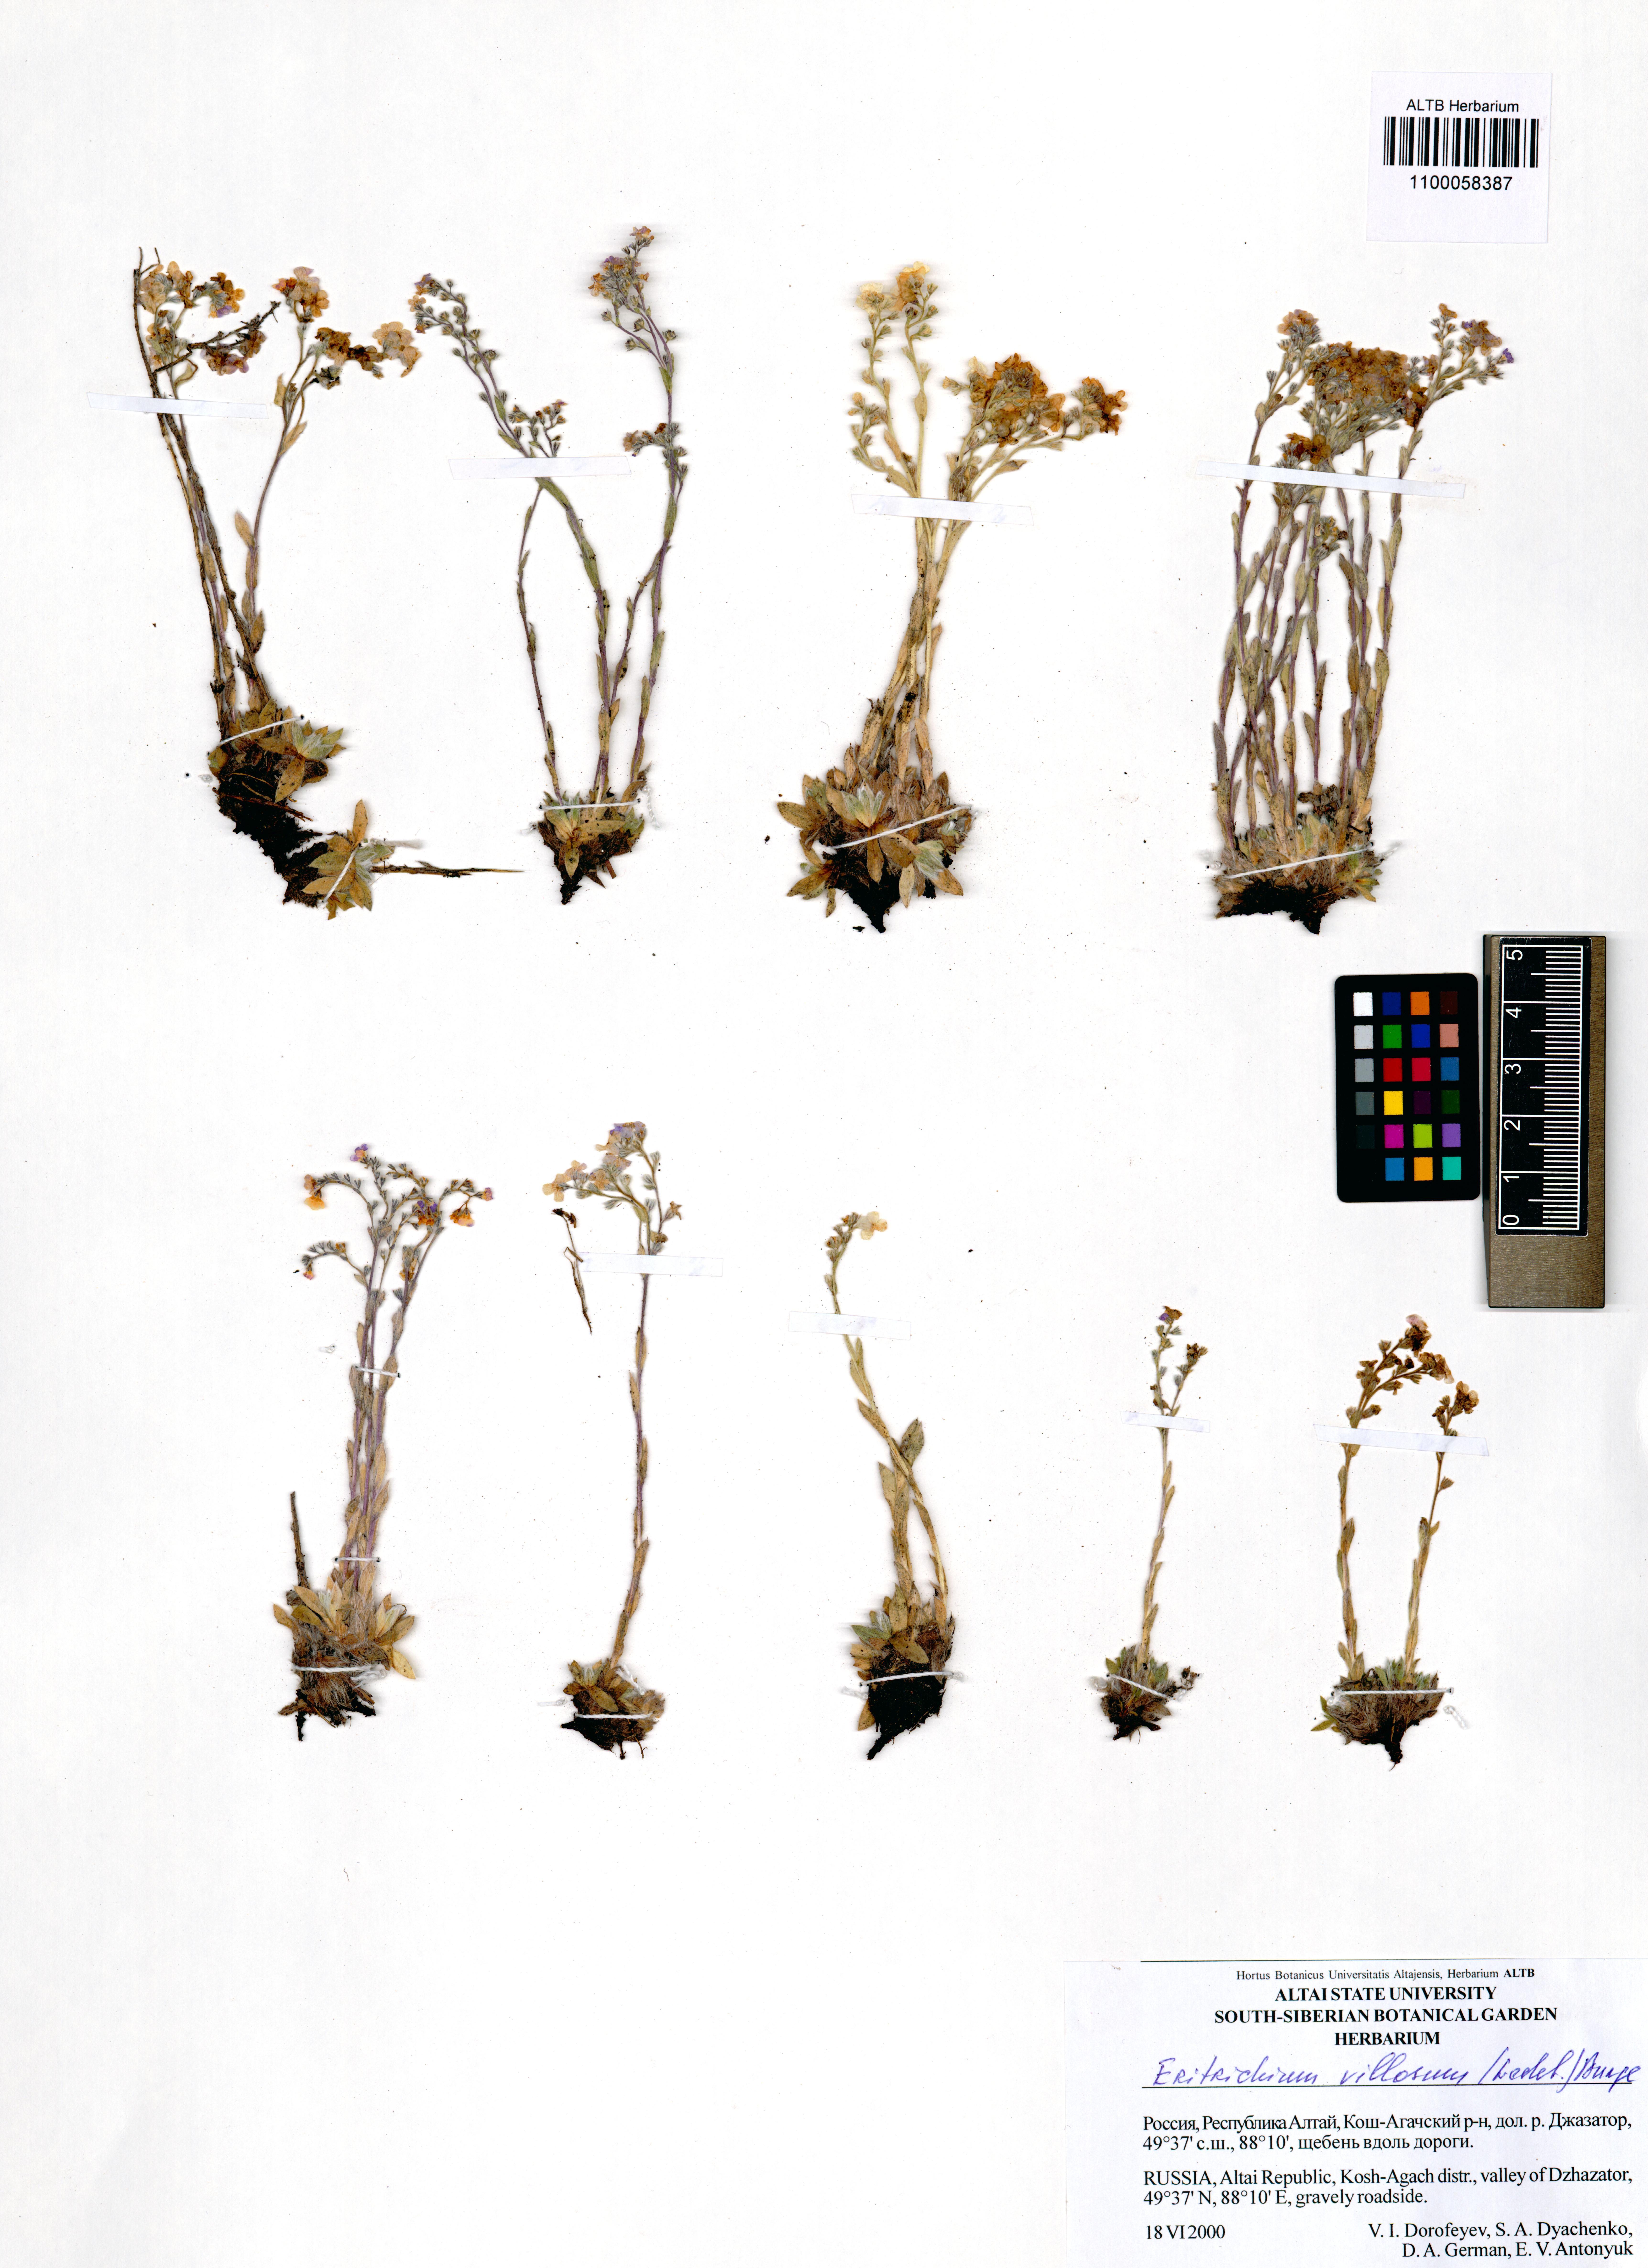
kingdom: Plantae
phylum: Tracheophyta
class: Magnoliopsida
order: Boraginales
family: Boraginaceae
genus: Eritrichium
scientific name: Eritrichium villosum
